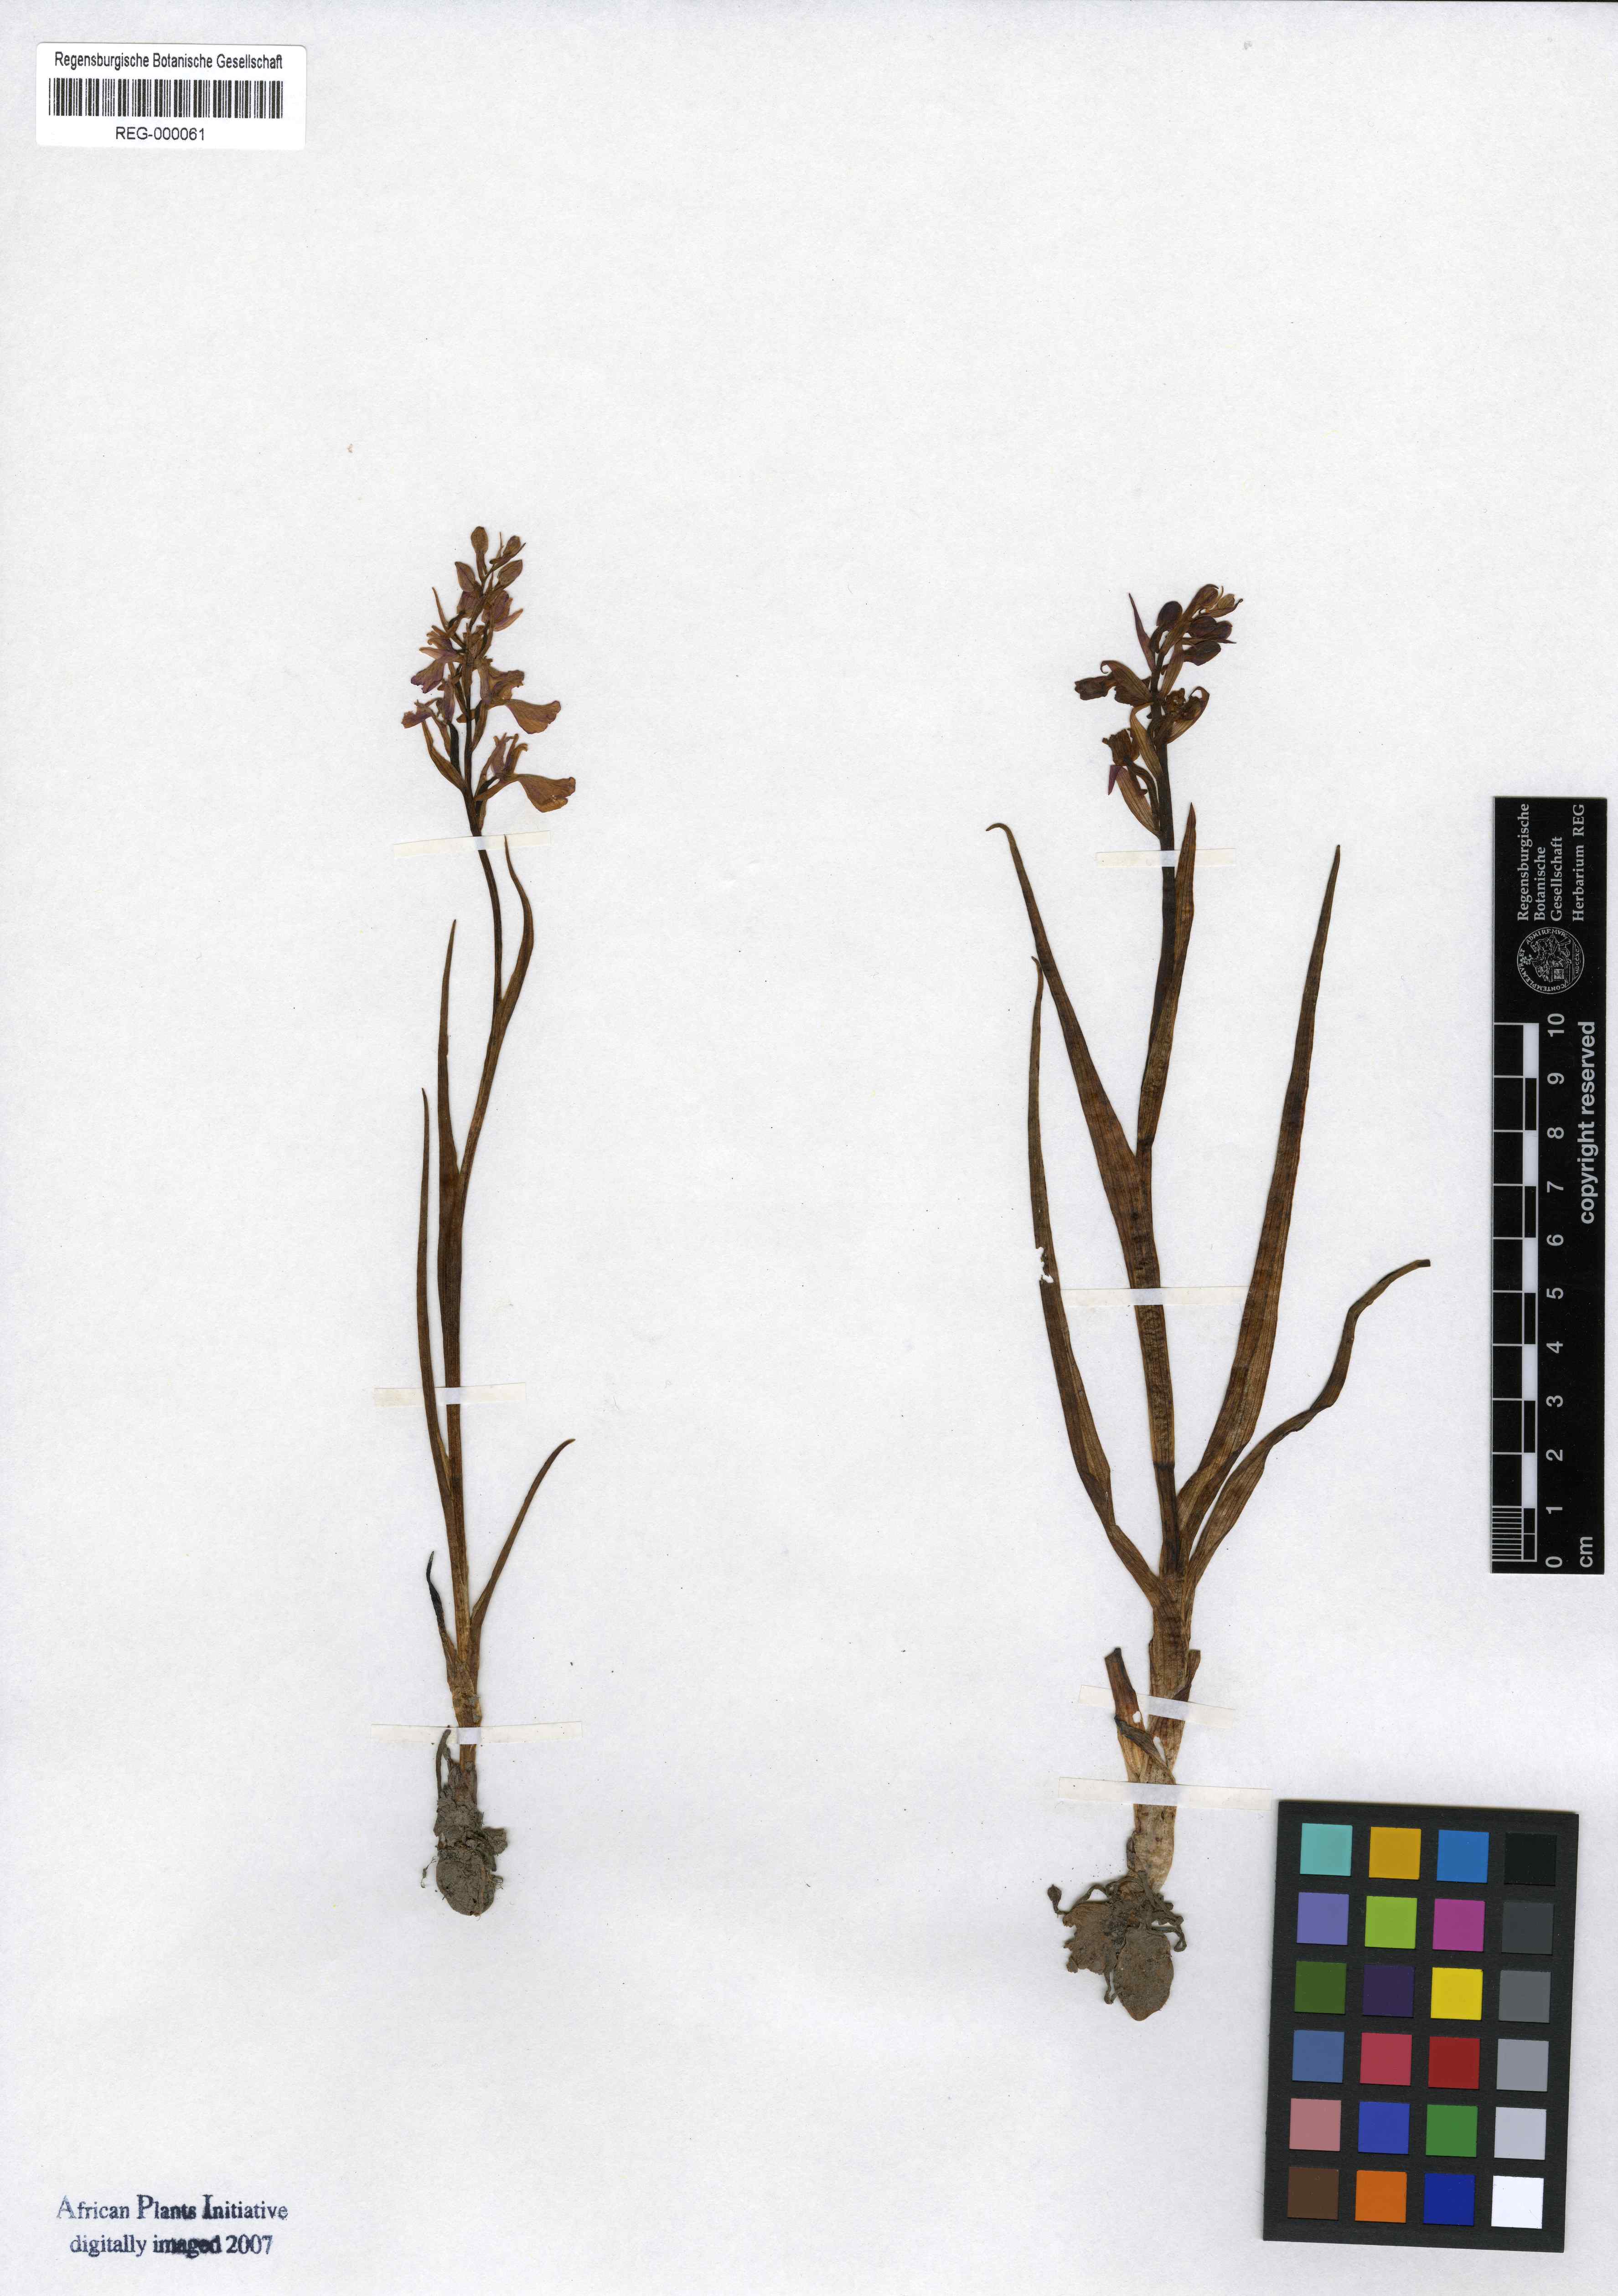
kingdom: Plantae
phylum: Tracheophyta
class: Liliopsida
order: Asparagales
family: Orchidaceae
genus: Anacamptis
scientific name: Anacamptis palustris
